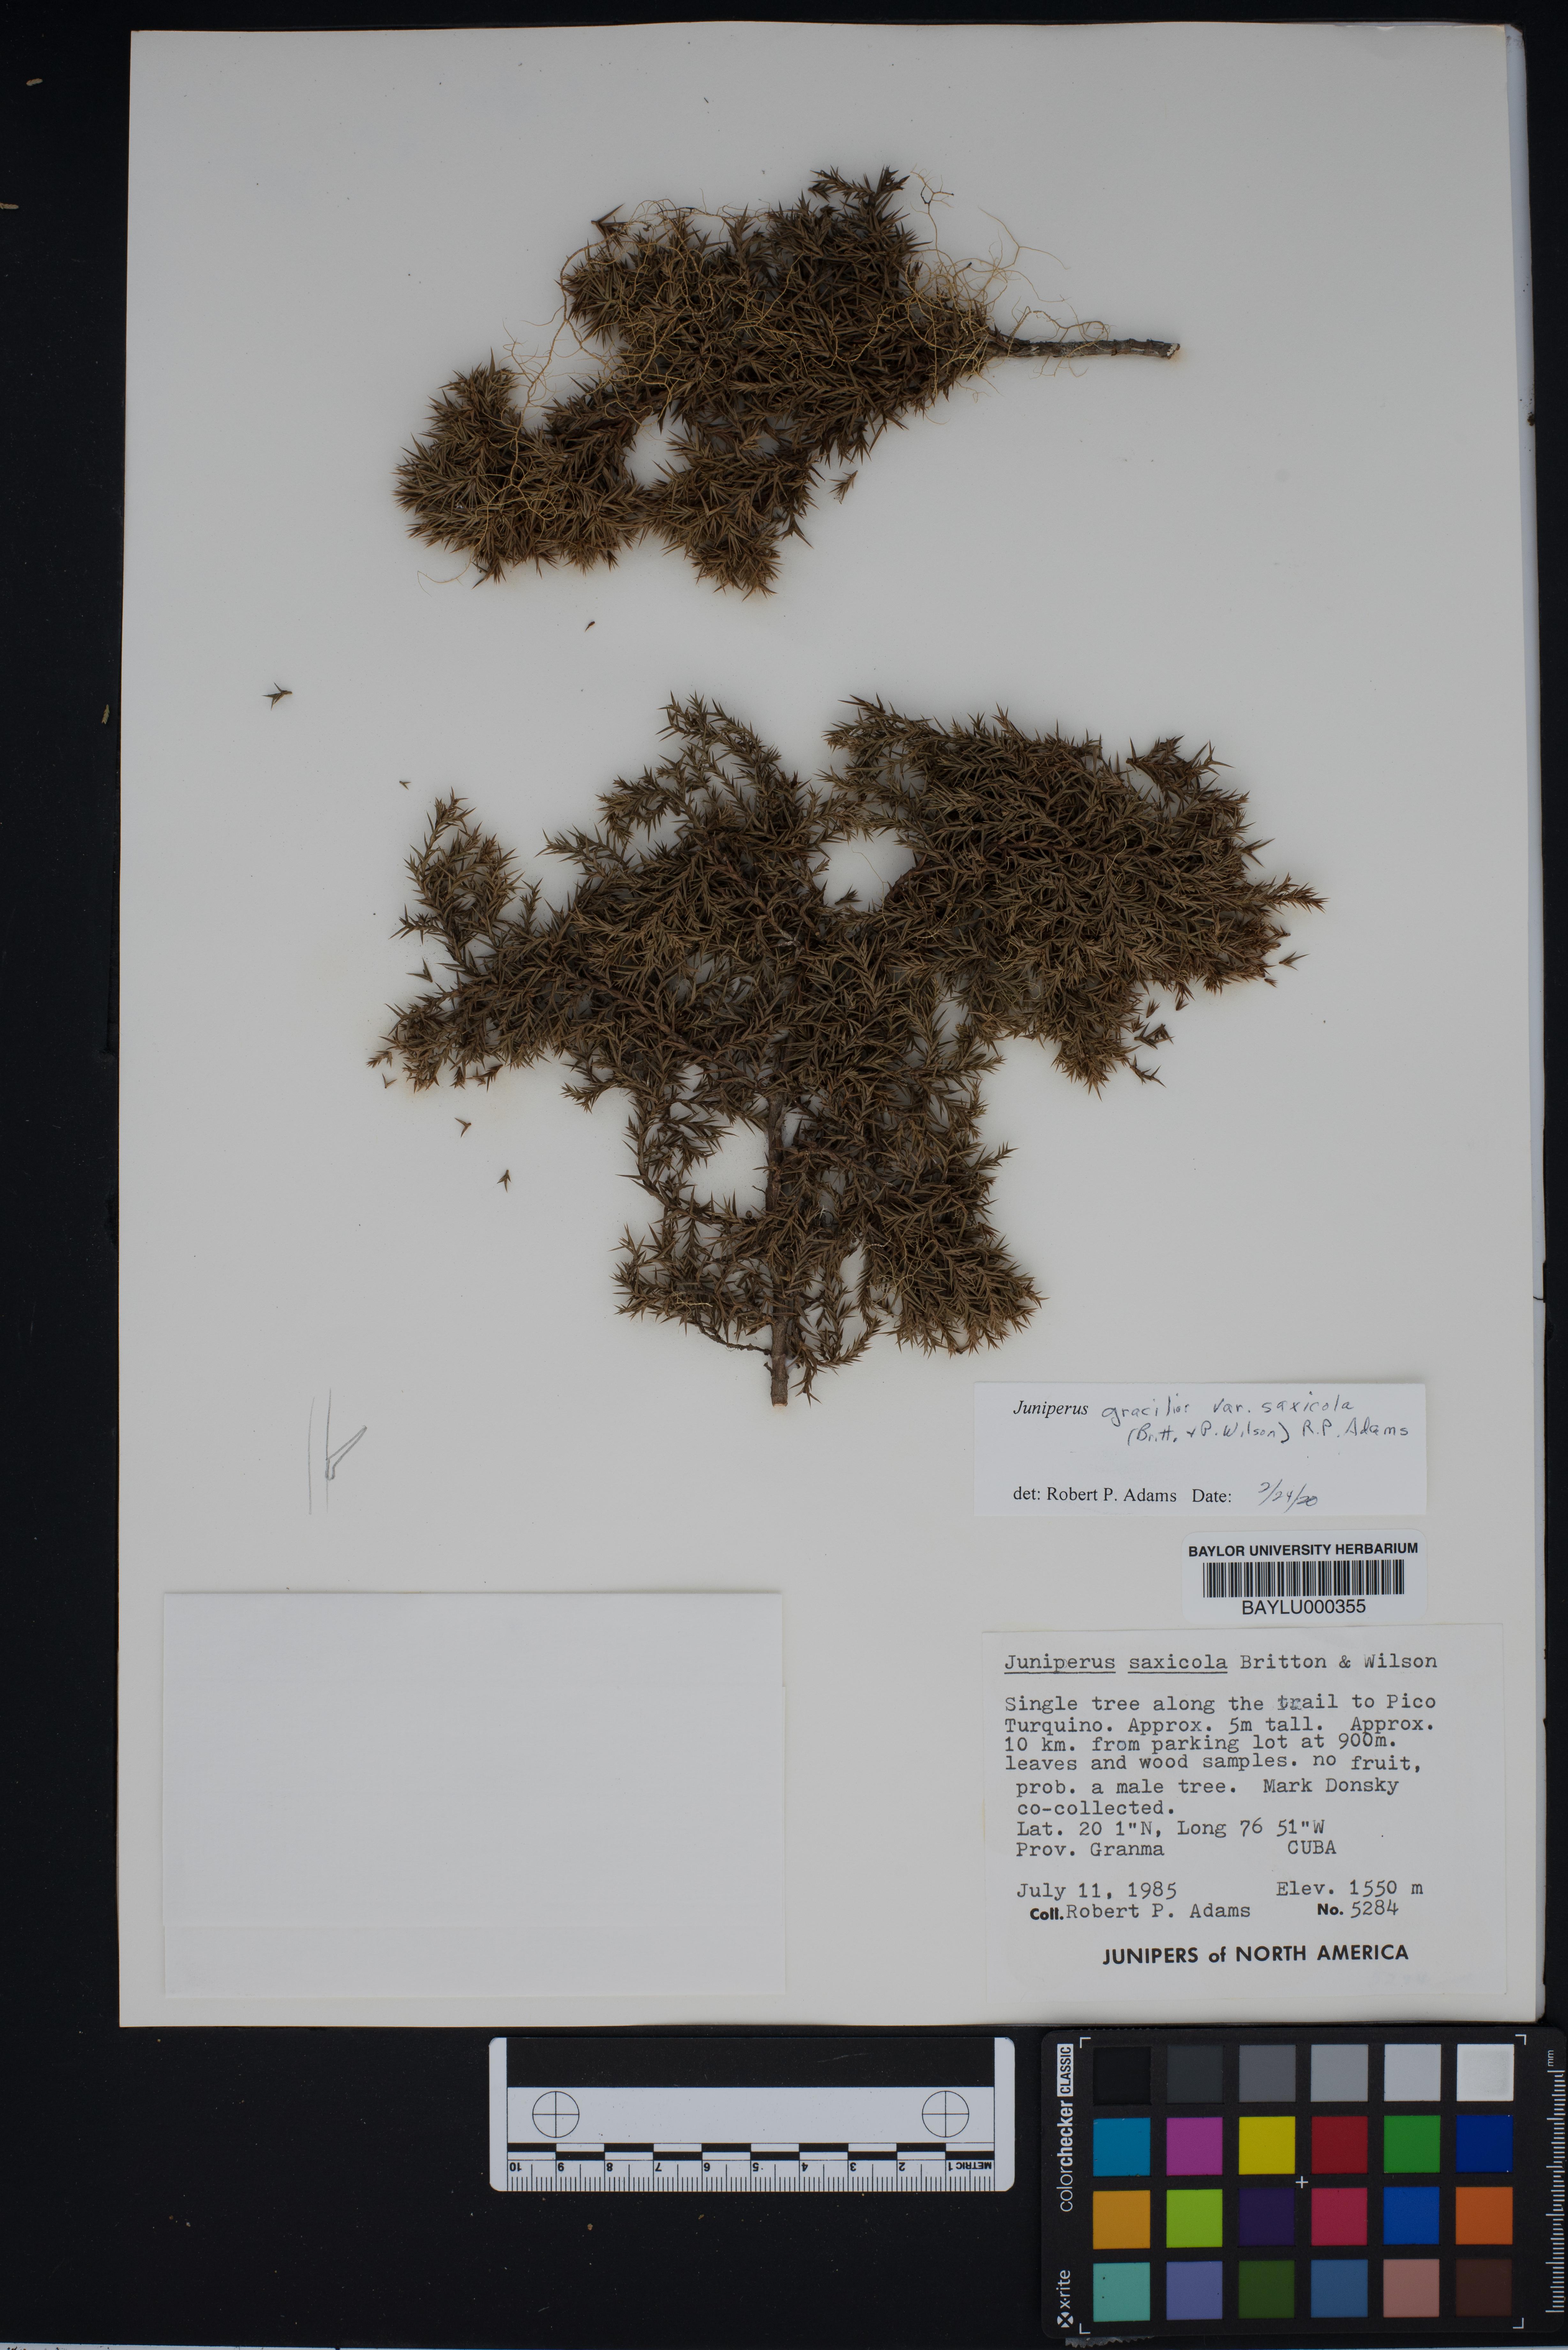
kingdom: Plantae
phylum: Tracheophyta
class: Pinopsida
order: Pinales
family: Cupressaceae
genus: Juniperus
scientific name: Juniperus saxicola
